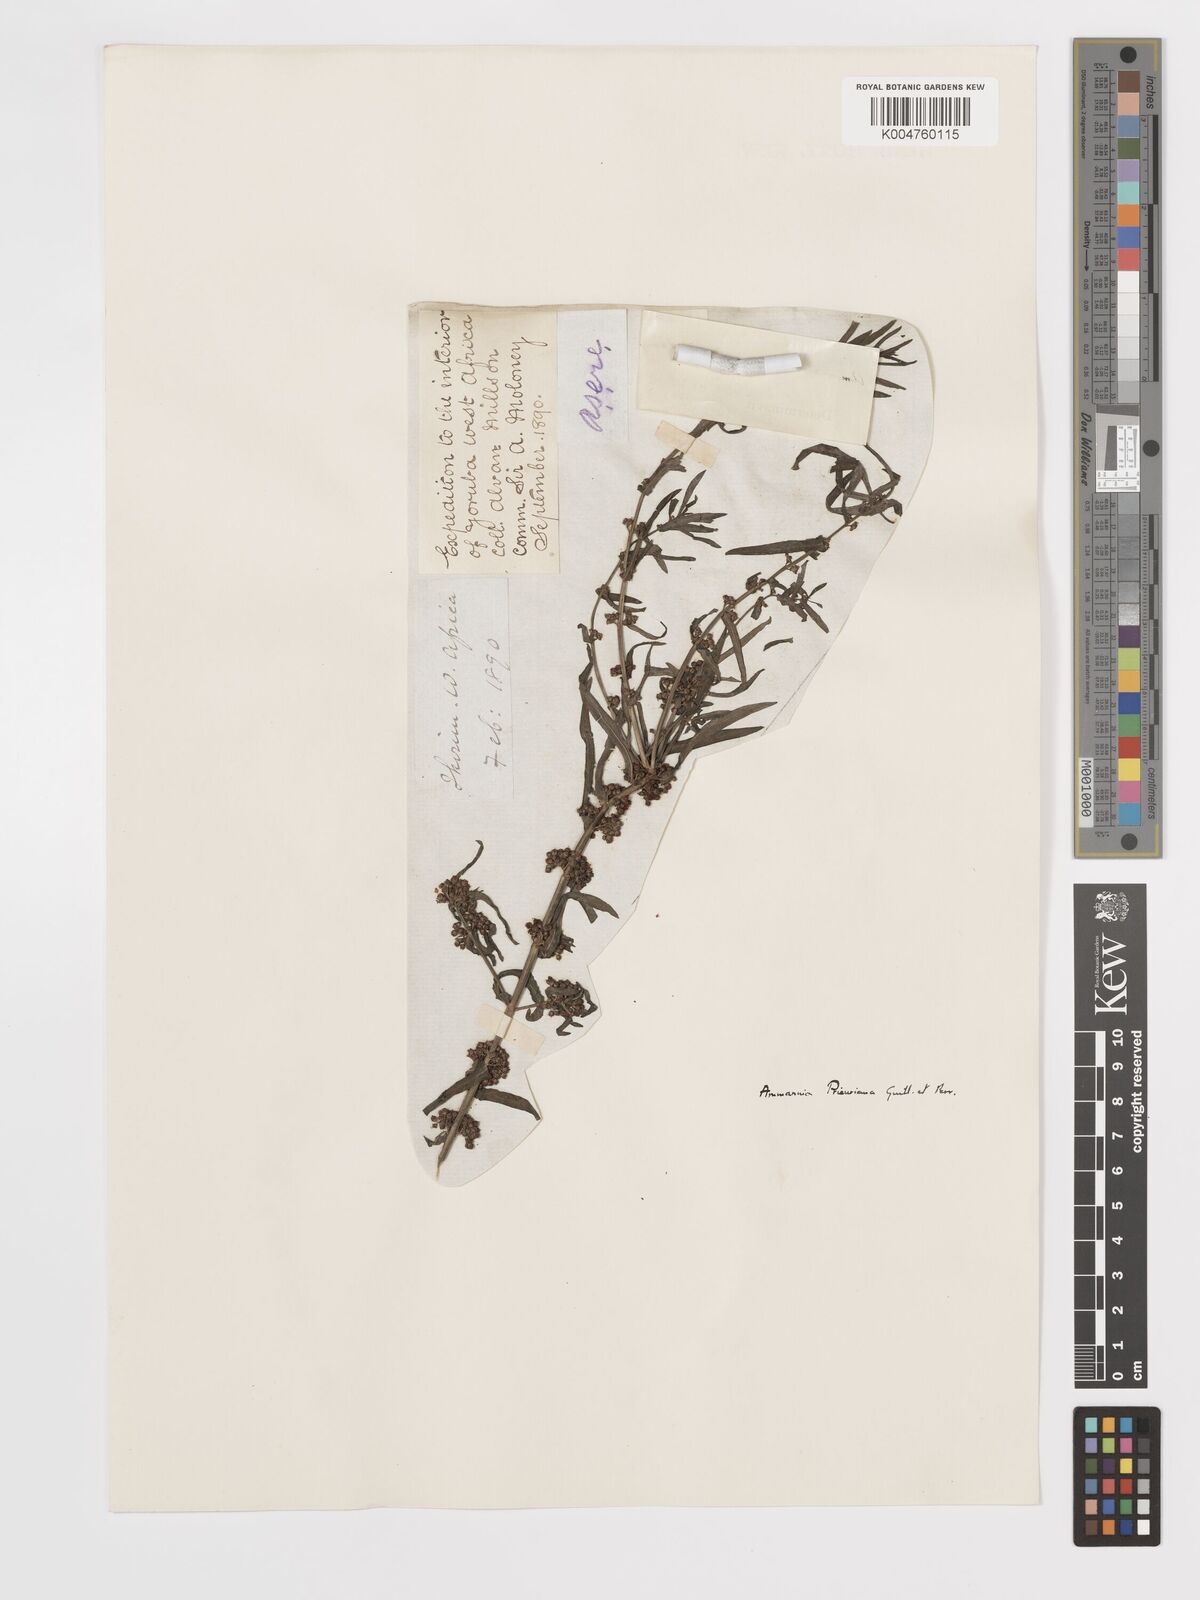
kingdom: Plantae
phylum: Tracheophyta
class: Magnoliopsida
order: Myrtales
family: Lythraceae
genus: Ammannia
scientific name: Ammannia prieuriana
